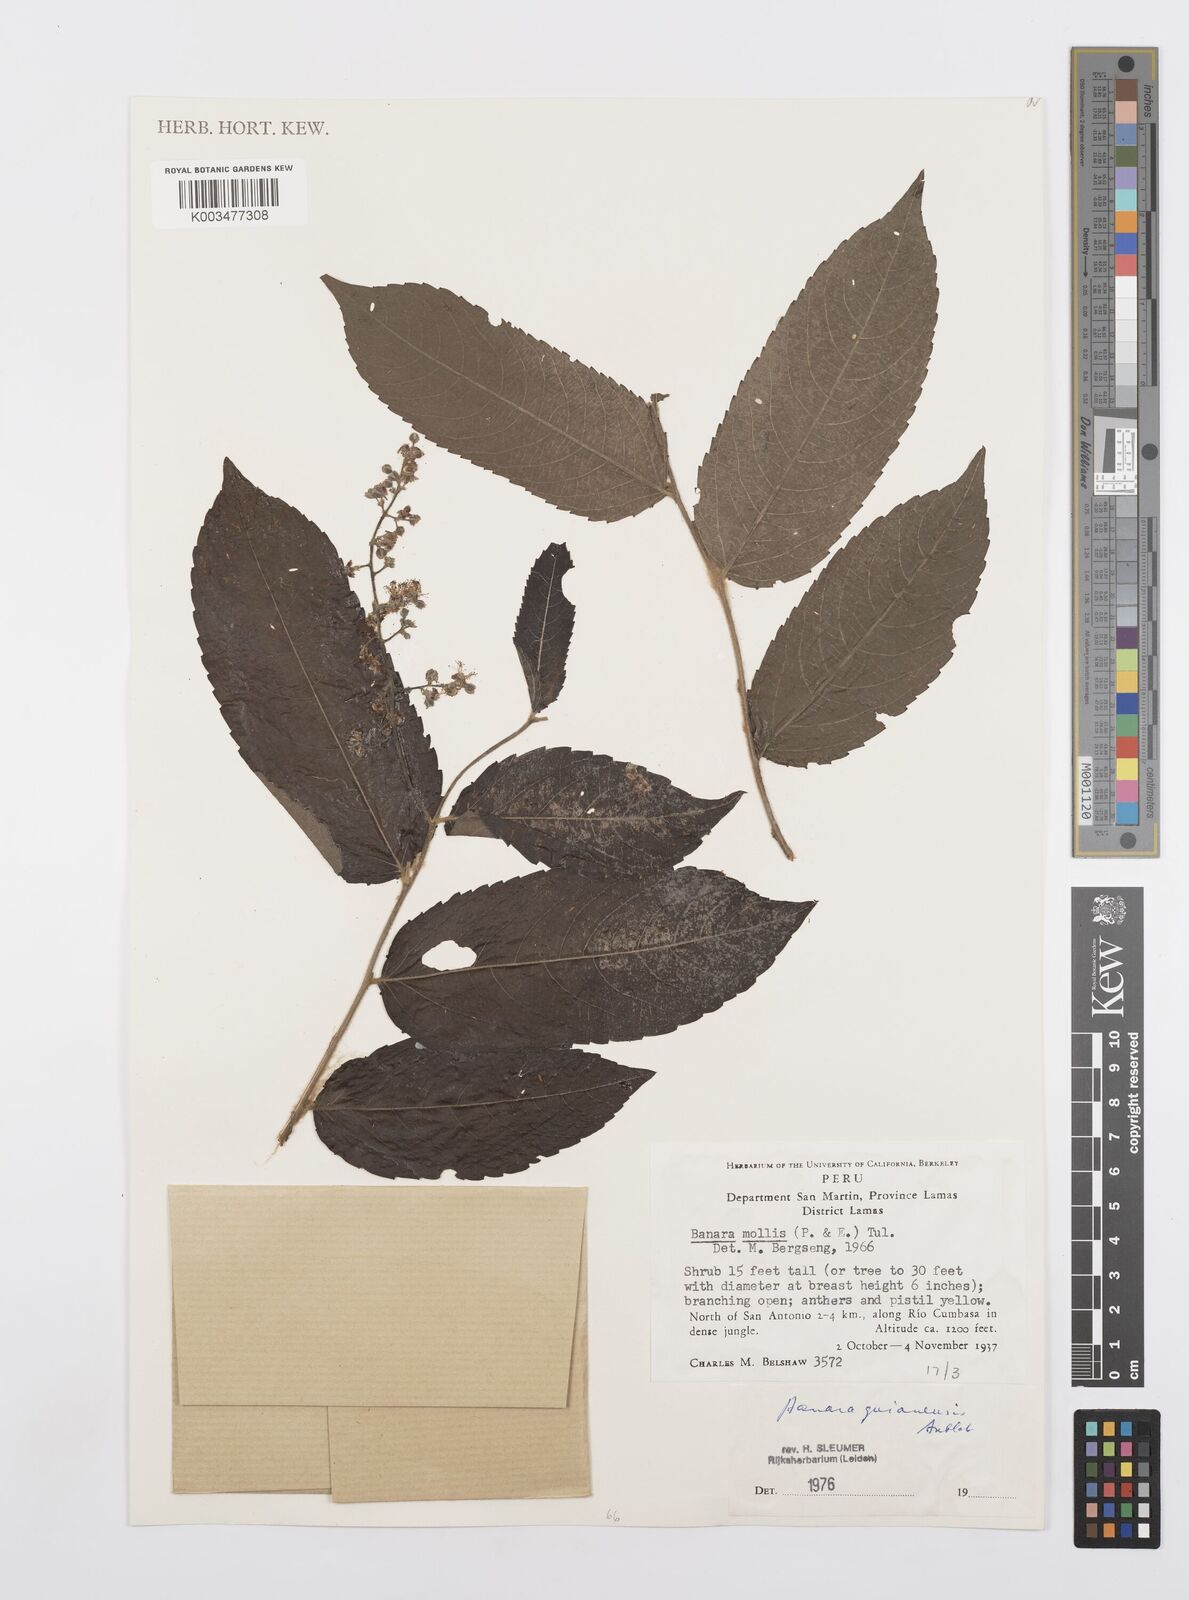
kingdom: Plantae
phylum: Tracheophyta
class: Magnoliopsida
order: Malpighiales
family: Salicaceae
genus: Banara
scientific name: Banara guianensis
